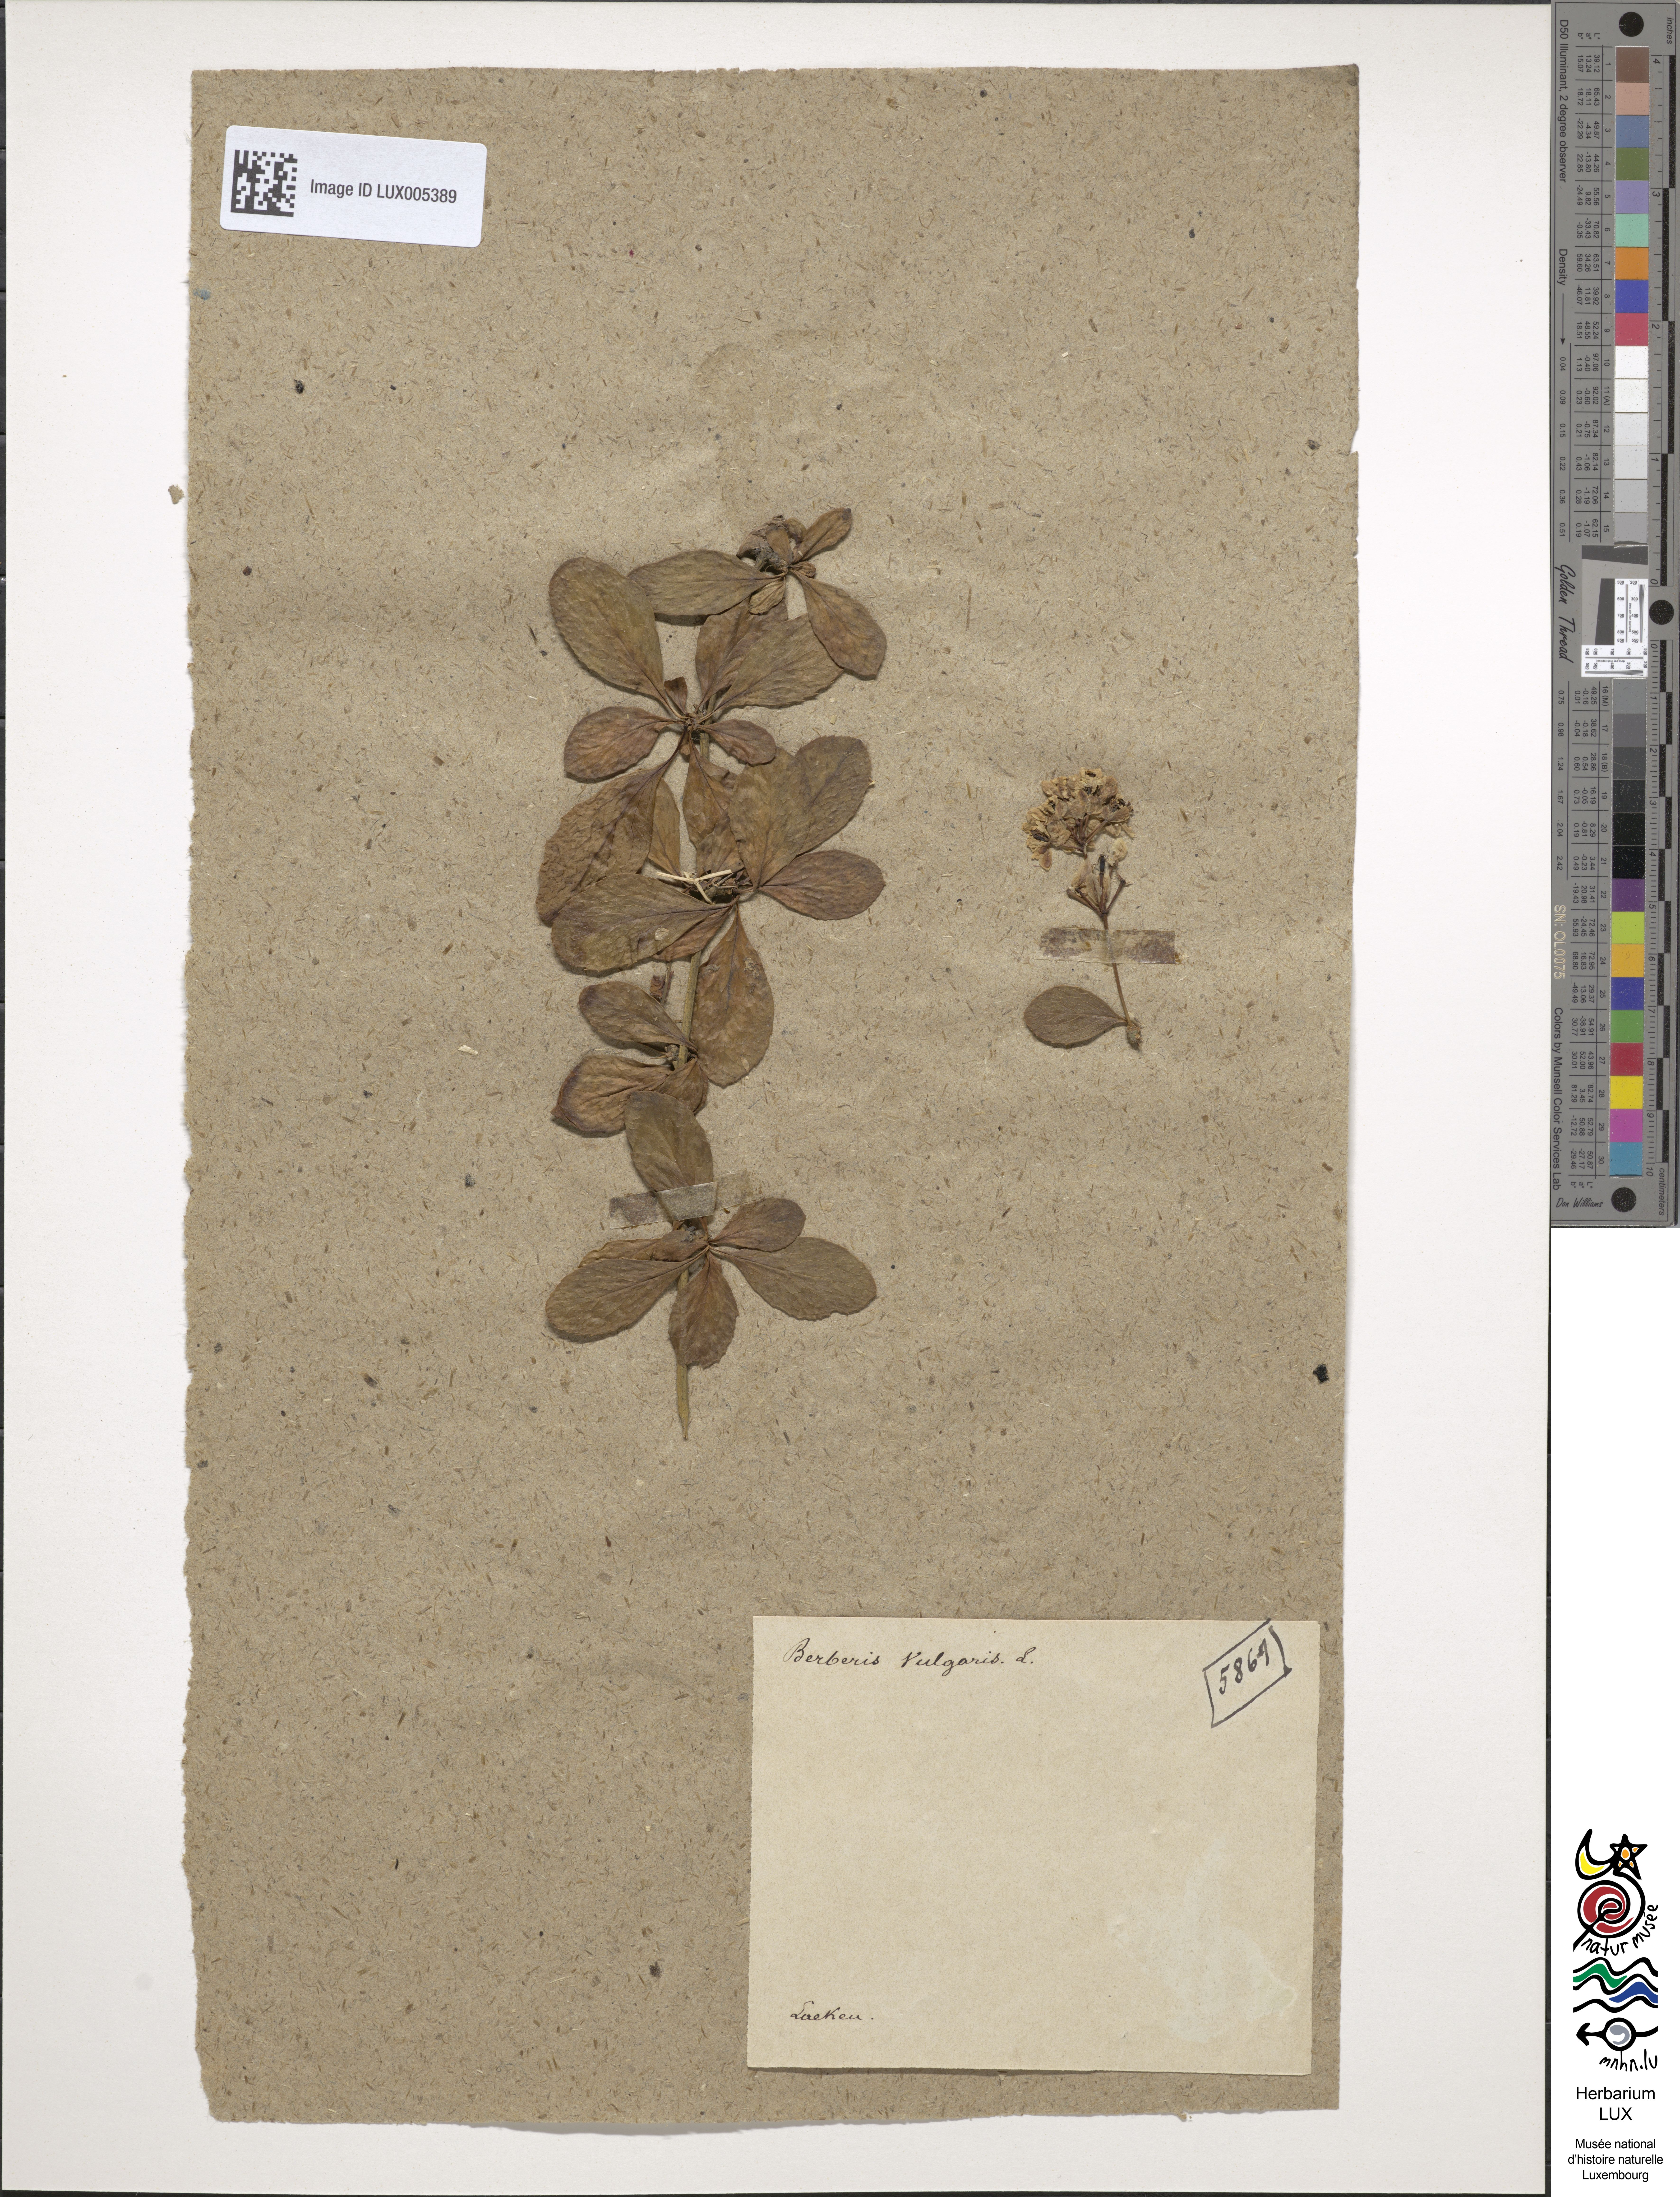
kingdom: Plantae
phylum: Tracheophyta
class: Magnoliopsida
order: Ranunculales
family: Berberidaceae
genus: Berberis
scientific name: Berberis vulgaris
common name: Barberry
